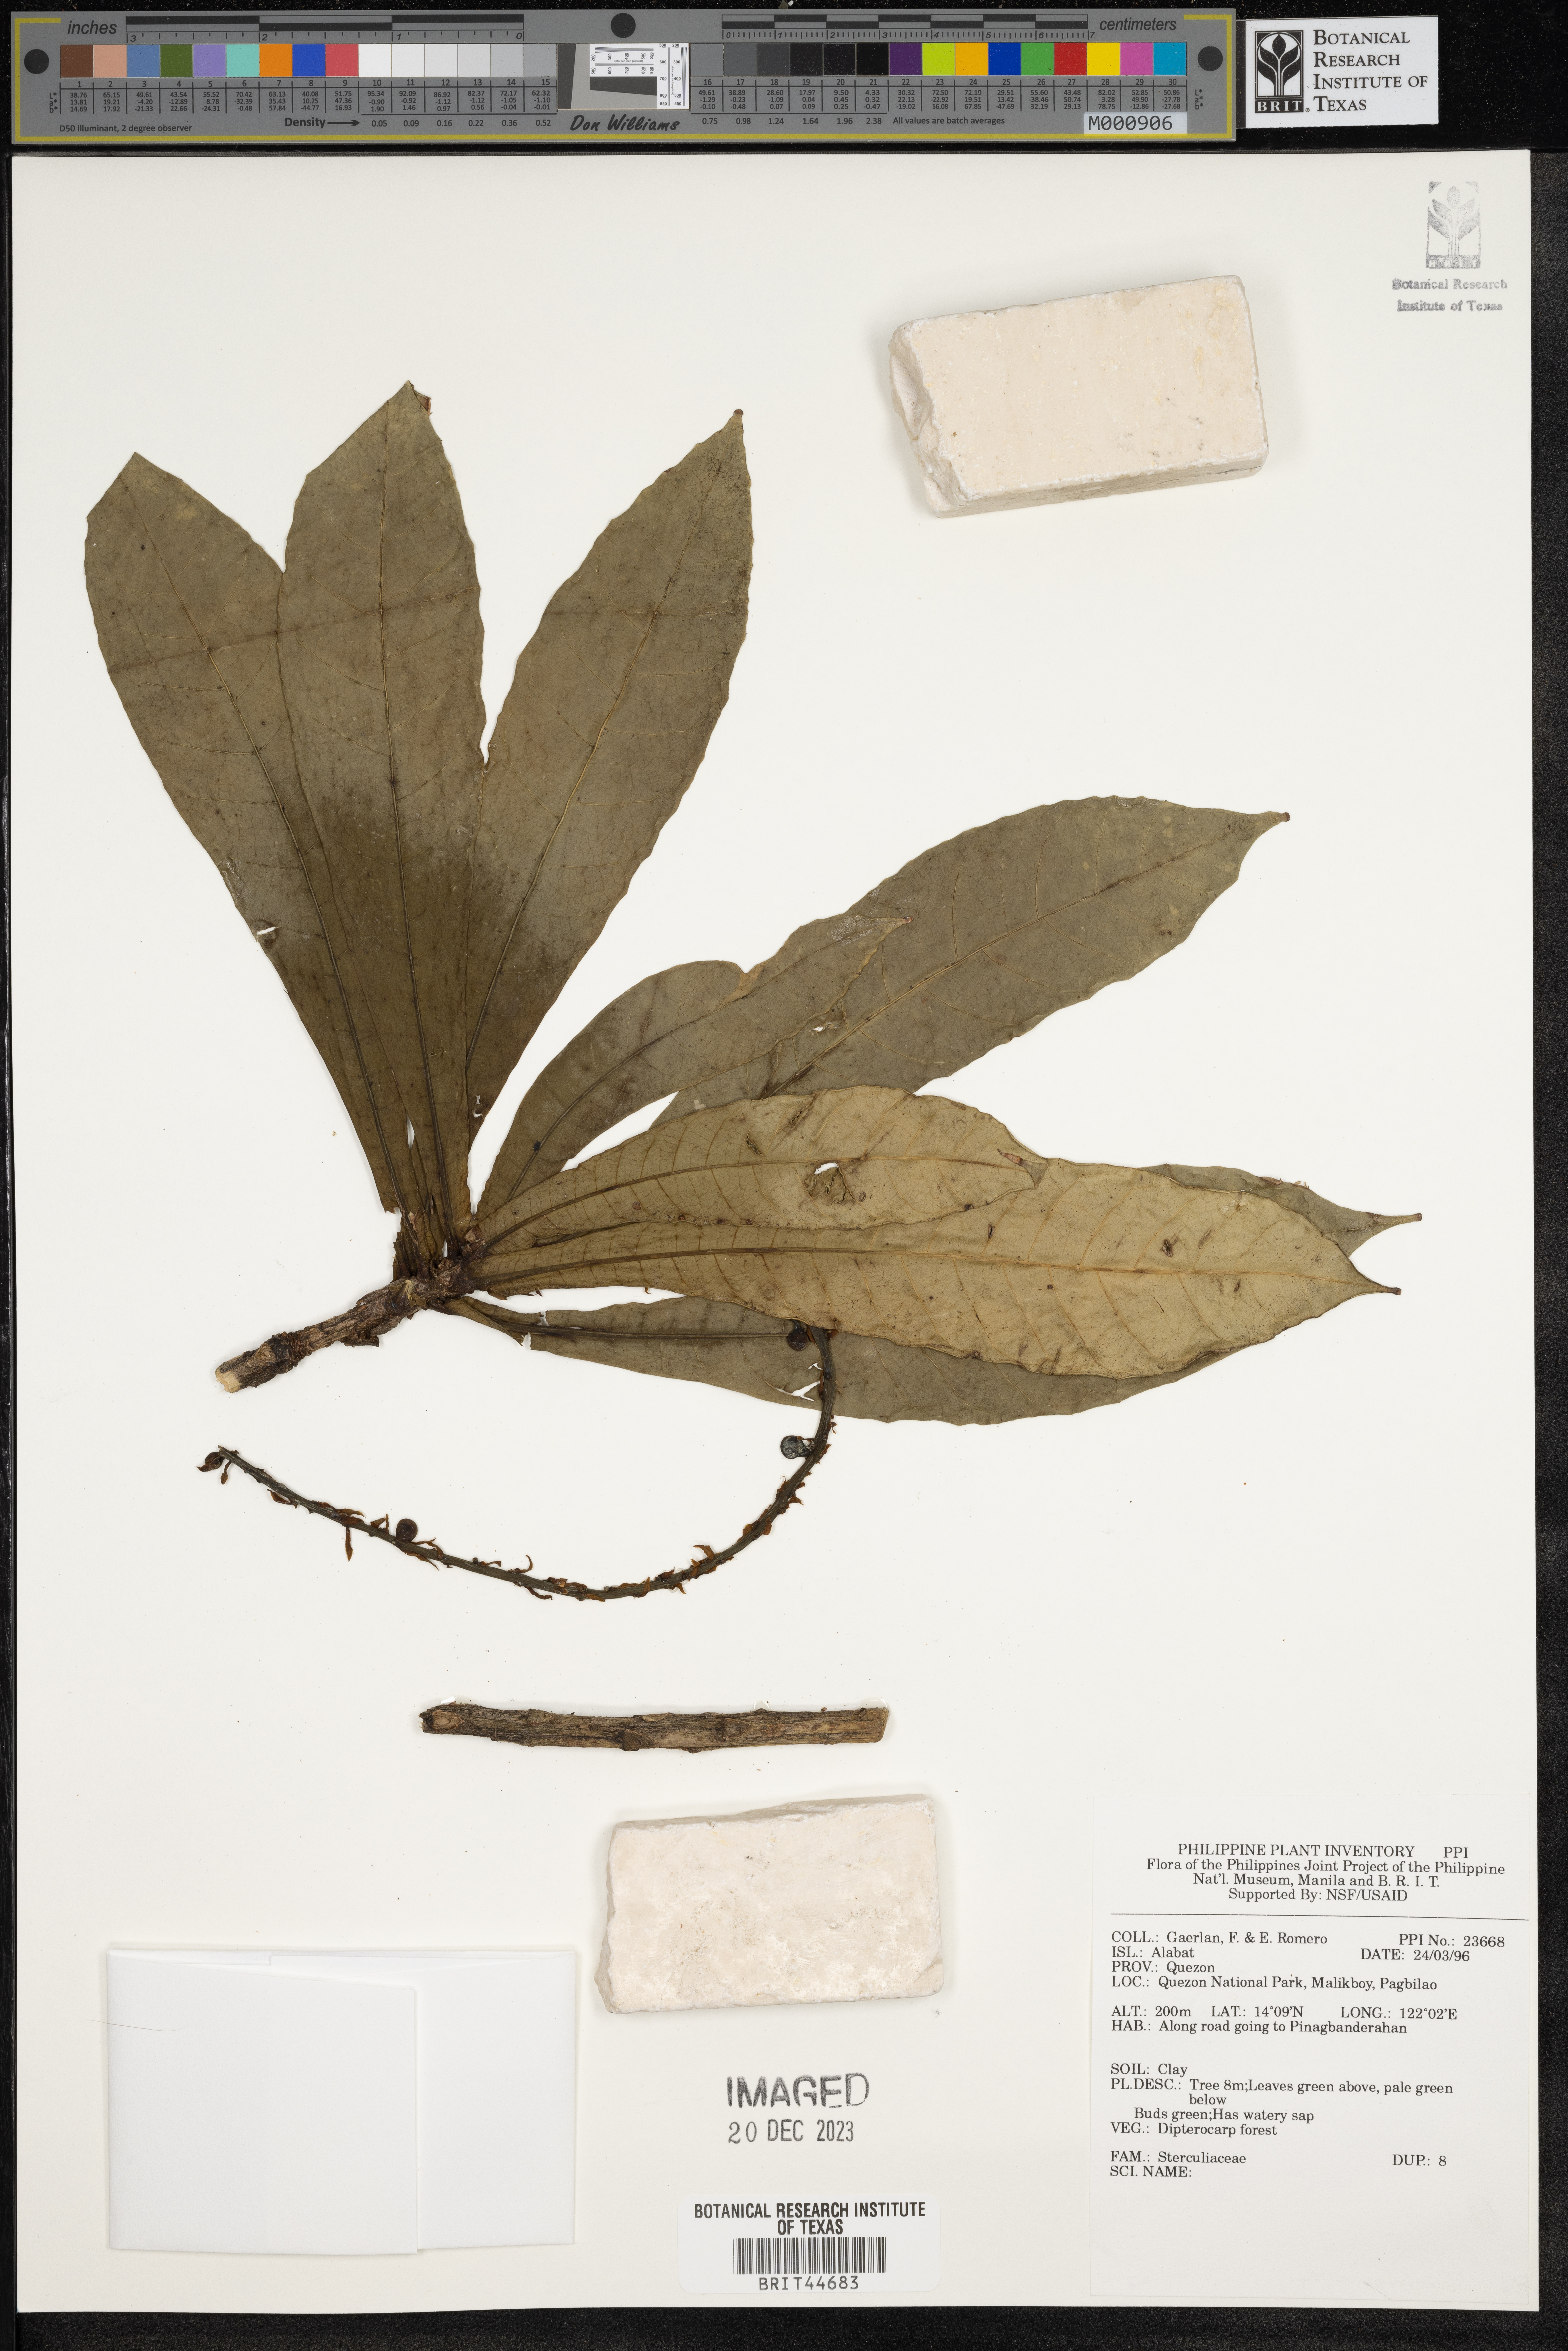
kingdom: Plantae
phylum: Tracheophyta
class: Magnoliopsida
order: Malvales
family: Sterculiaceae
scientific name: Sterculiaceae
